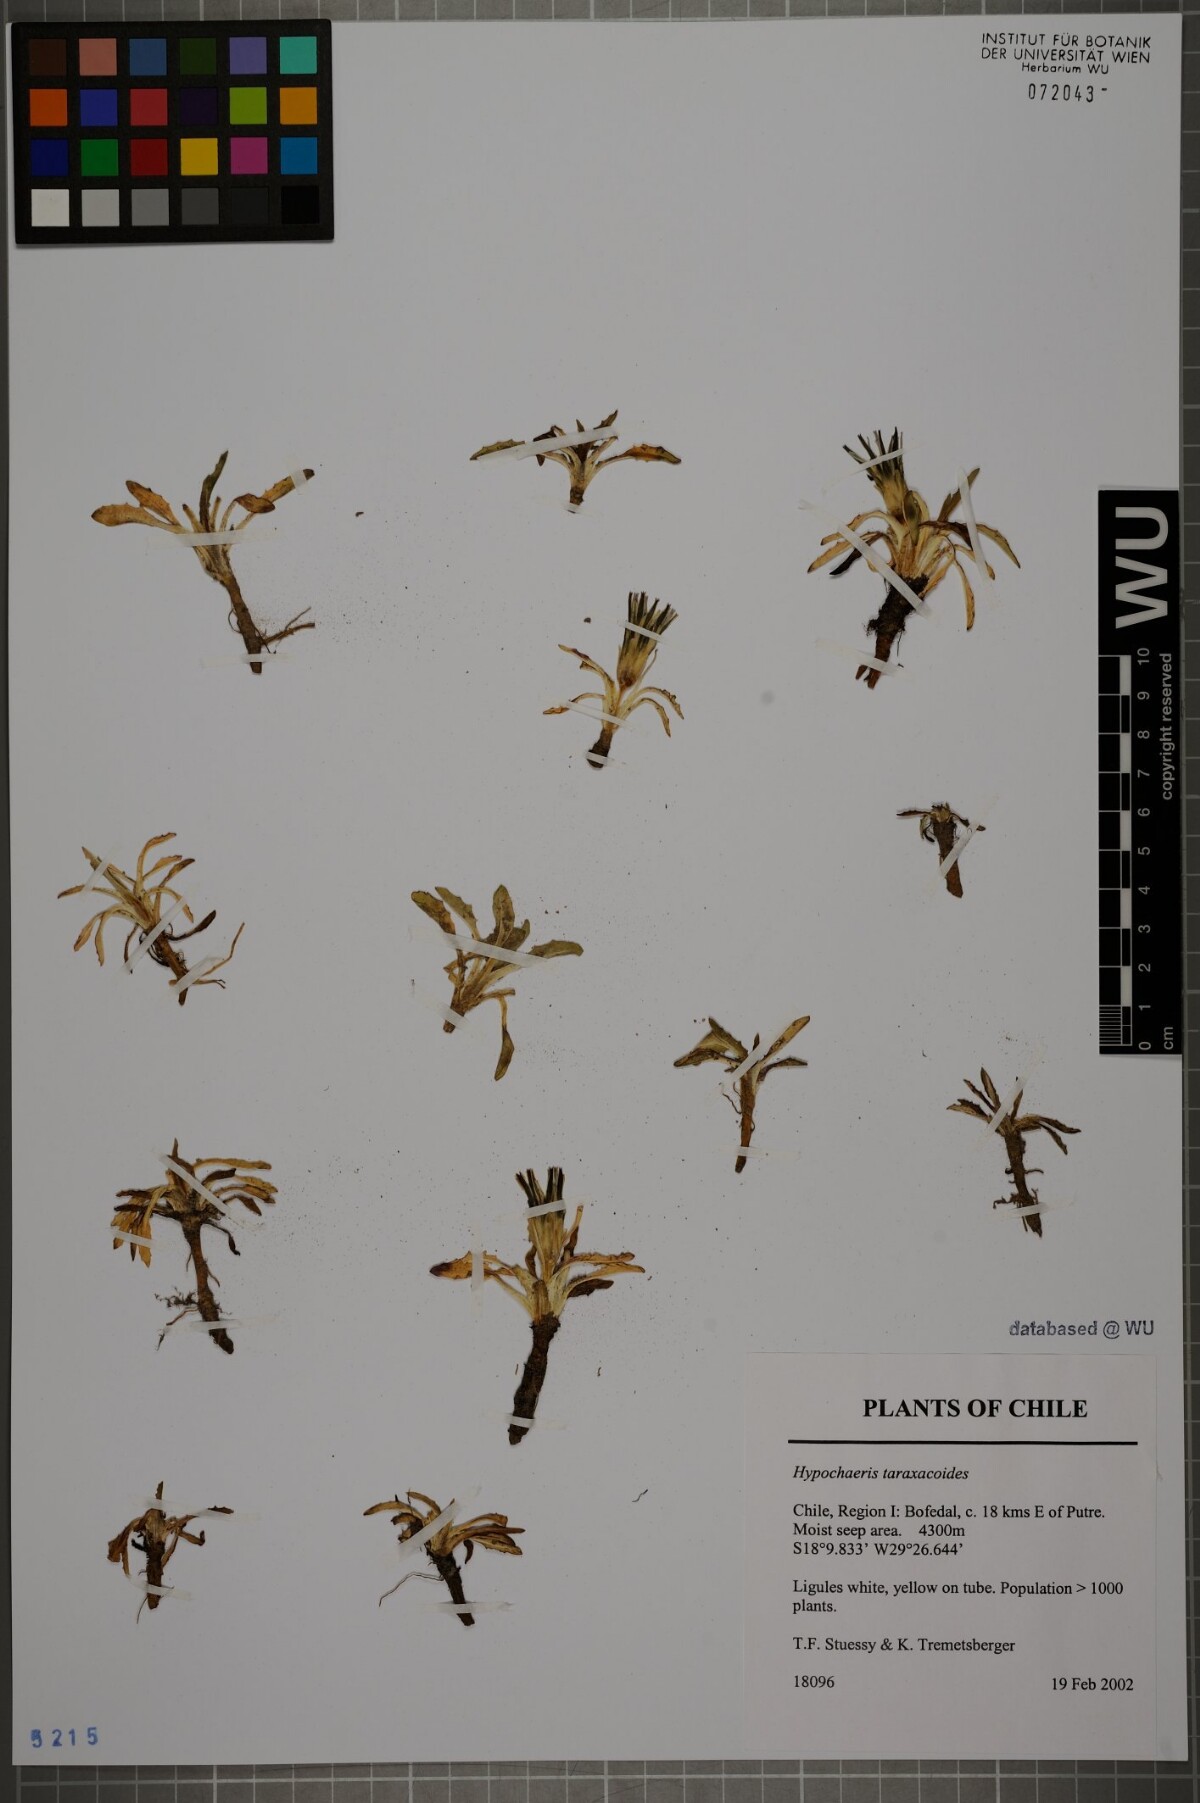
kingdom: Plantae
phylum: Tracheophyta
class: Magnoliopsida
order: Asterales
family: Asteraceae
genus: Hypochaeris
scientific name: Hypochaeris taraxacoides
